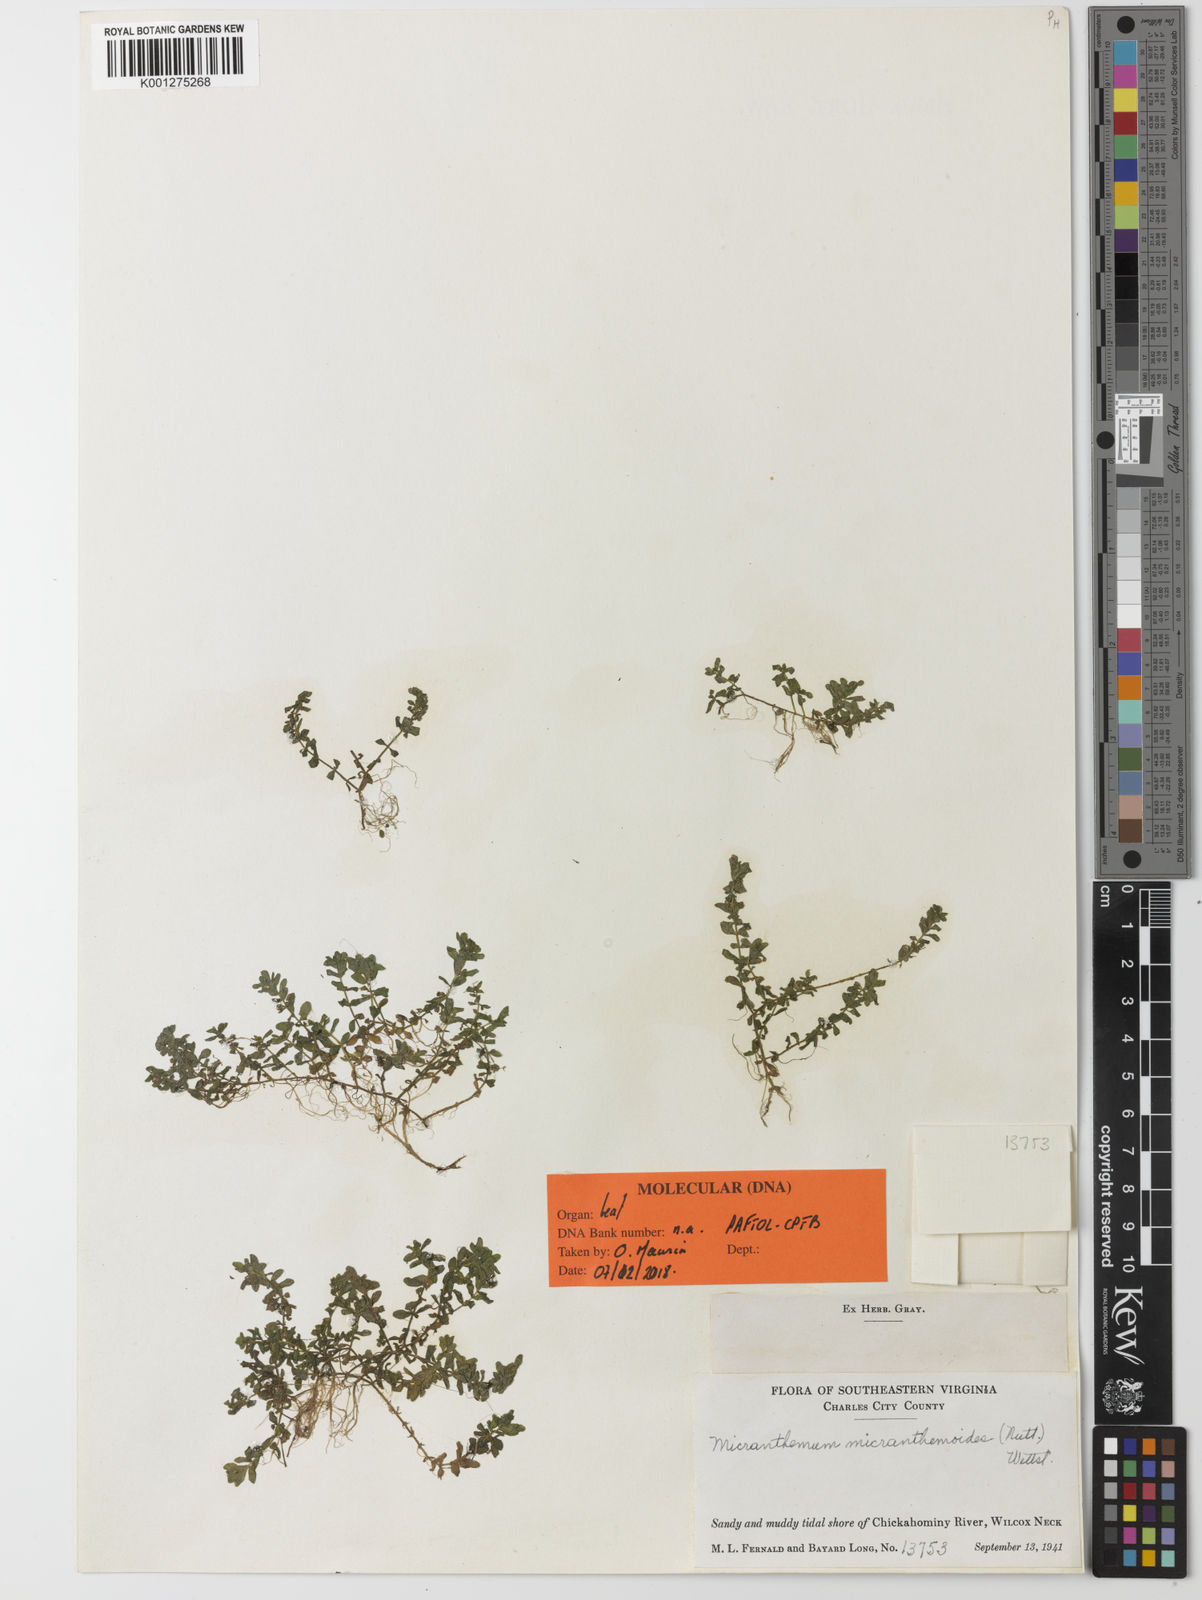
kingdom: Plantae
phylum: Tracheophyta
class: Magnoliopsida
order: Lamiales
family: Linderniaceae
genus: Micranthemum
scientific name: Micranthemum micranthemoides
